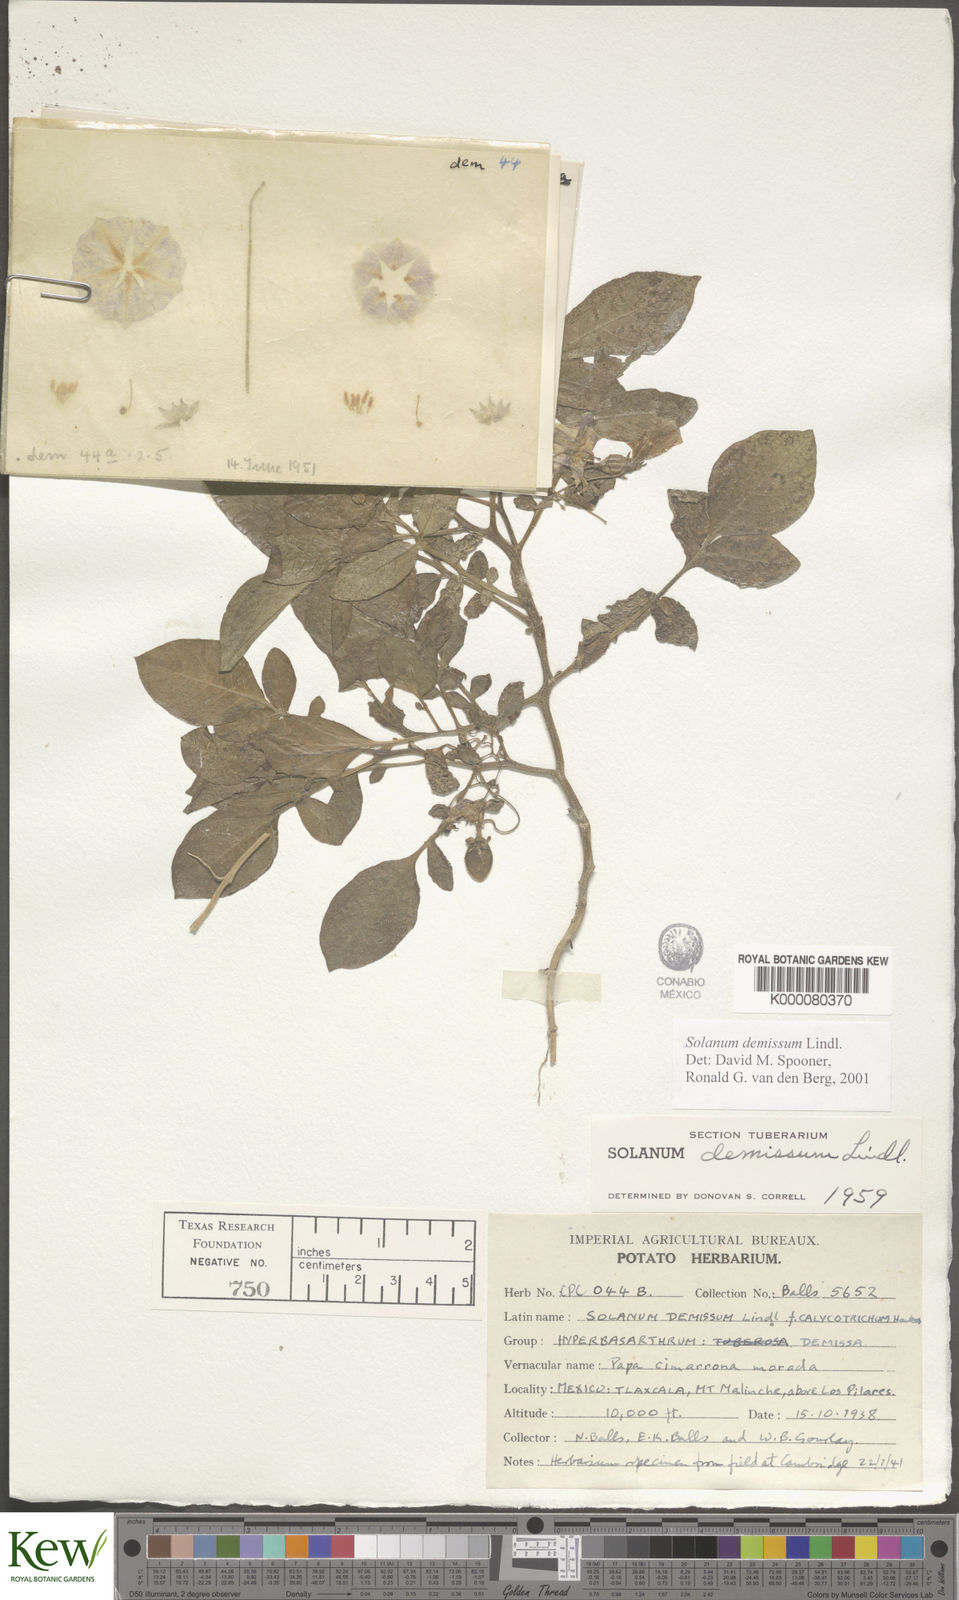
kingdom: Plantae
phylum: Tracheophyta
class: Magnoliopsida
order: Solanales
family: Solanaceae
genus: Solanum
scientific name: Solanum demissum
